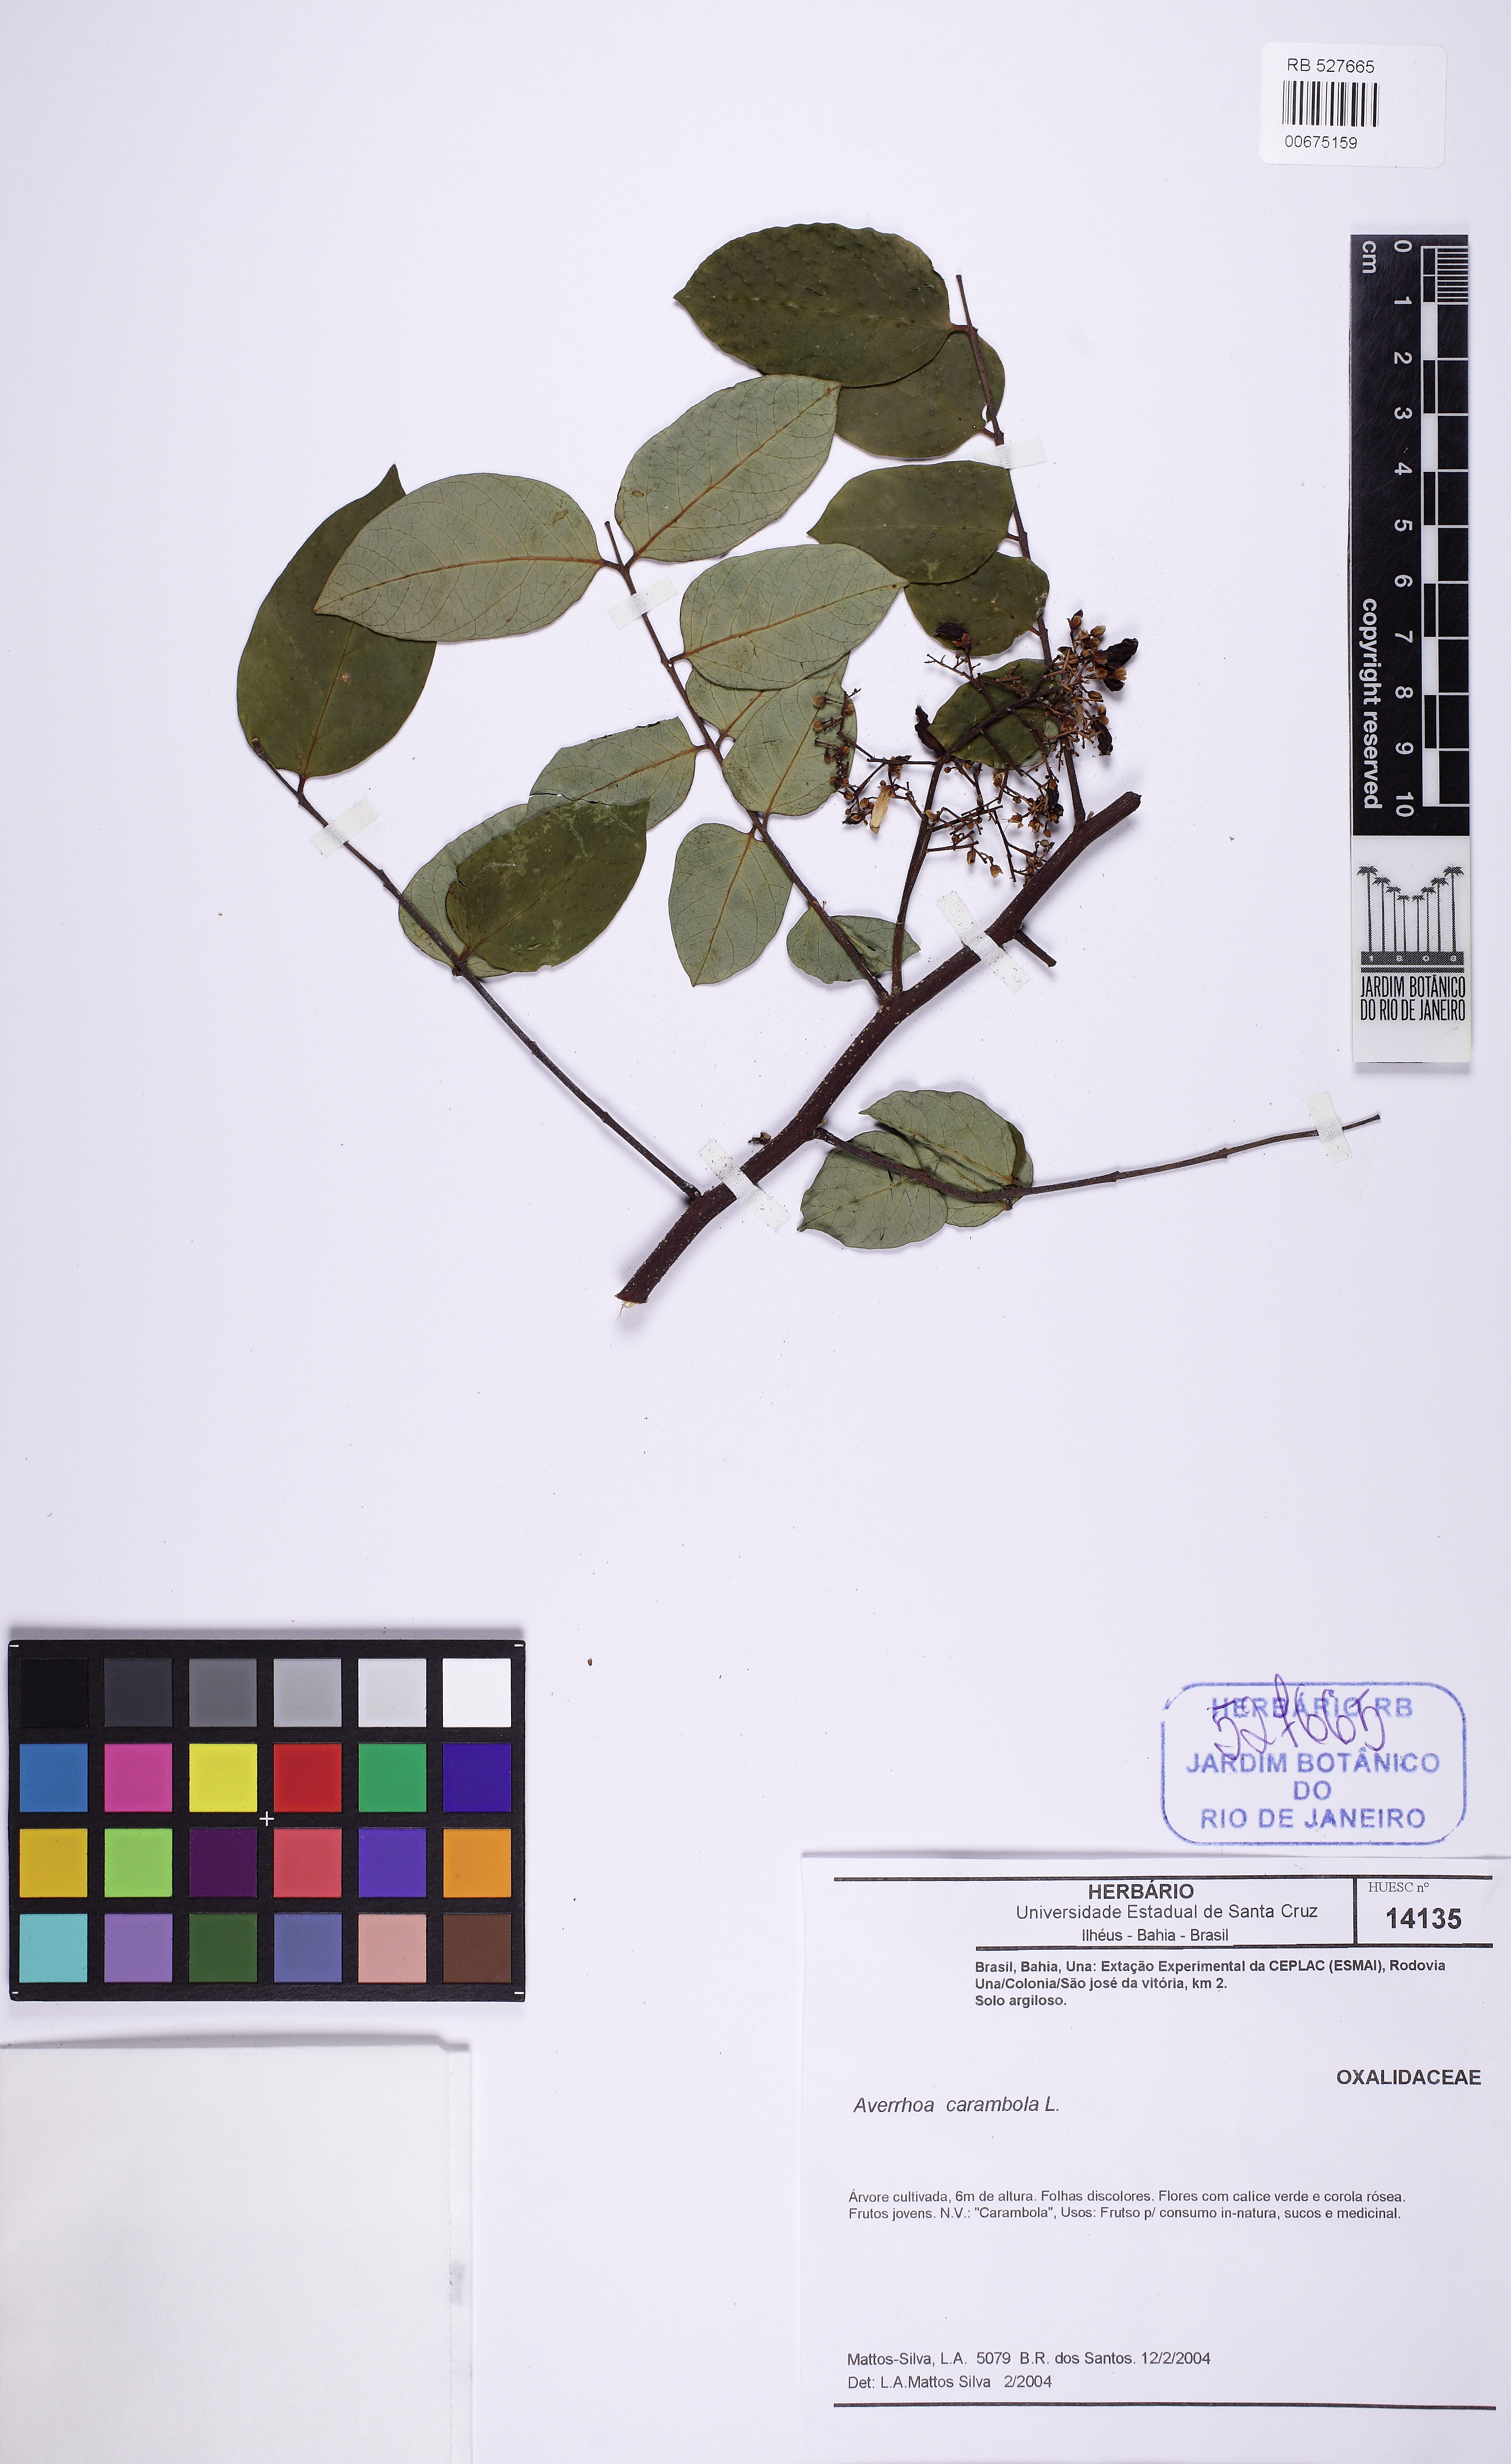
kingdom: Plantae
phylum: Tracheophyta
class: Magnoliopsida
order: Oxalidales
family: Oxalidaceae
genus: Averrhoa
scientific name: Averrhoa carambola
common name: Blimbing
